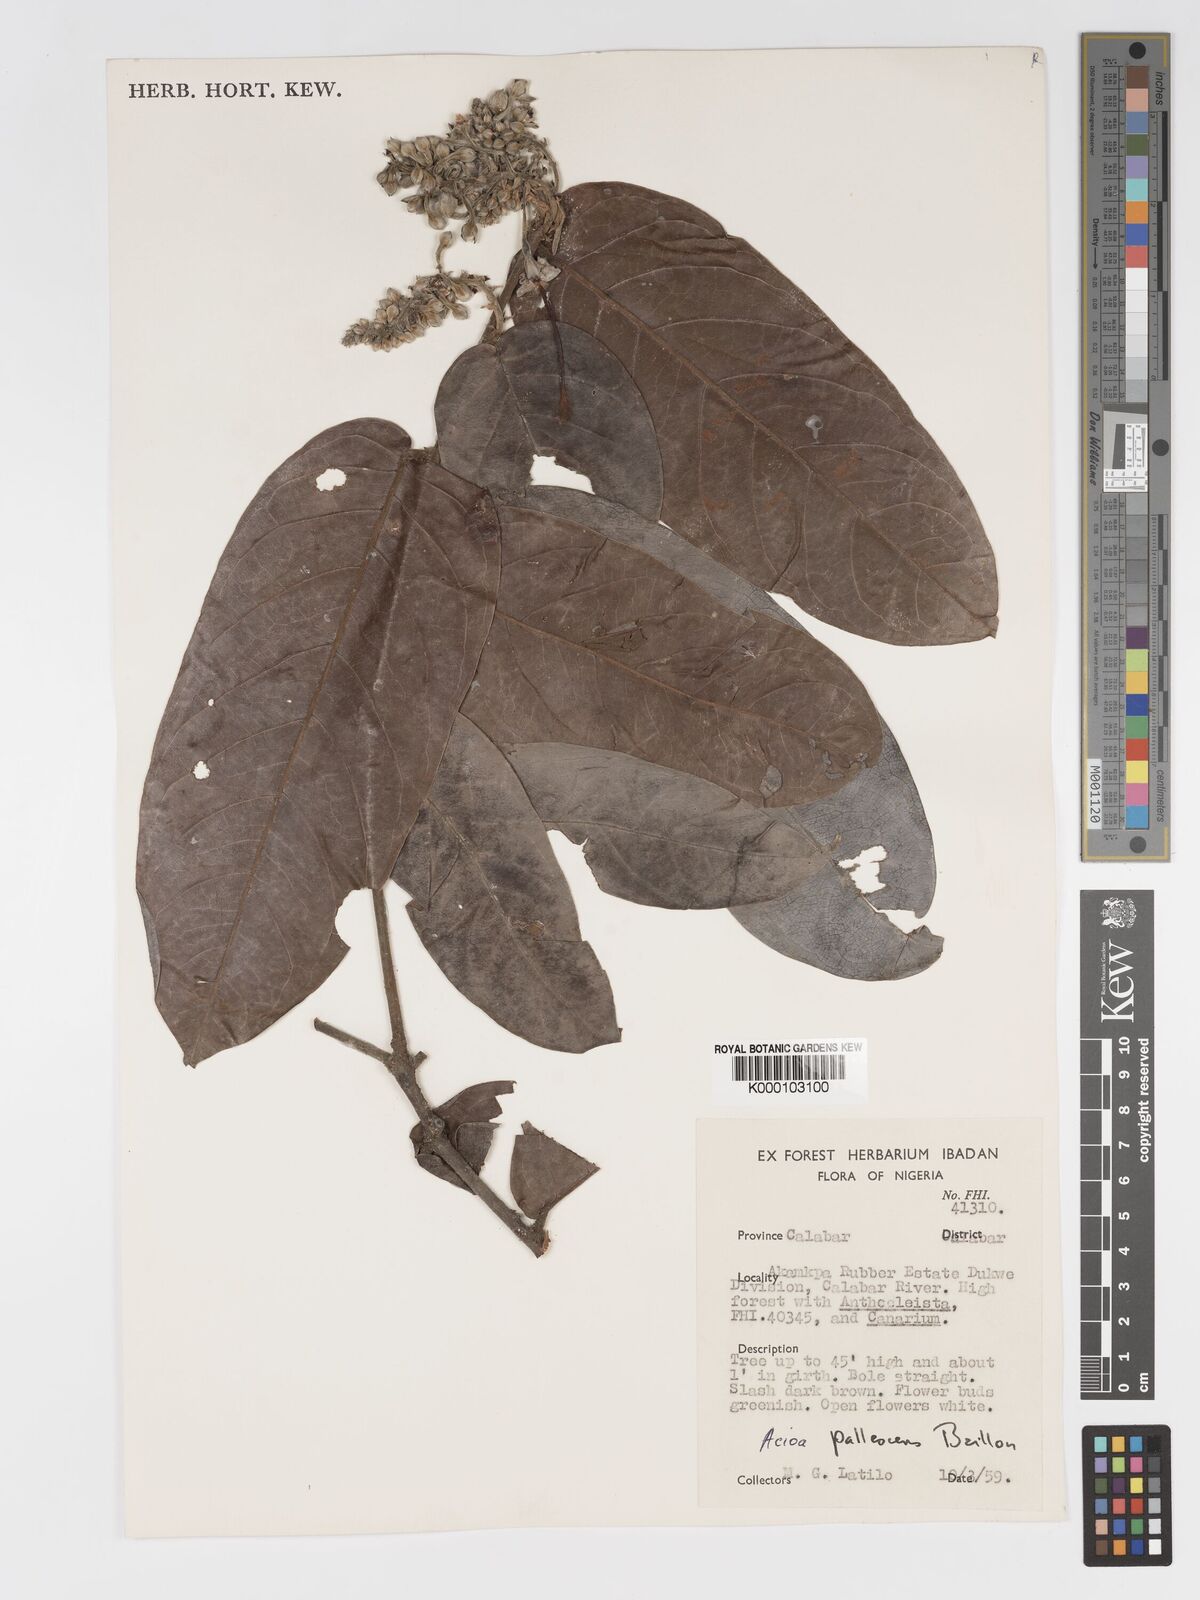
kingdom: Plantae
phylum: Tracheophyta
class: Magnoliopsida
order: Malpighiales
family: Chrysobalanaceae
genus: Dactyladenia
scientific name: Dactyladenia pallescens
